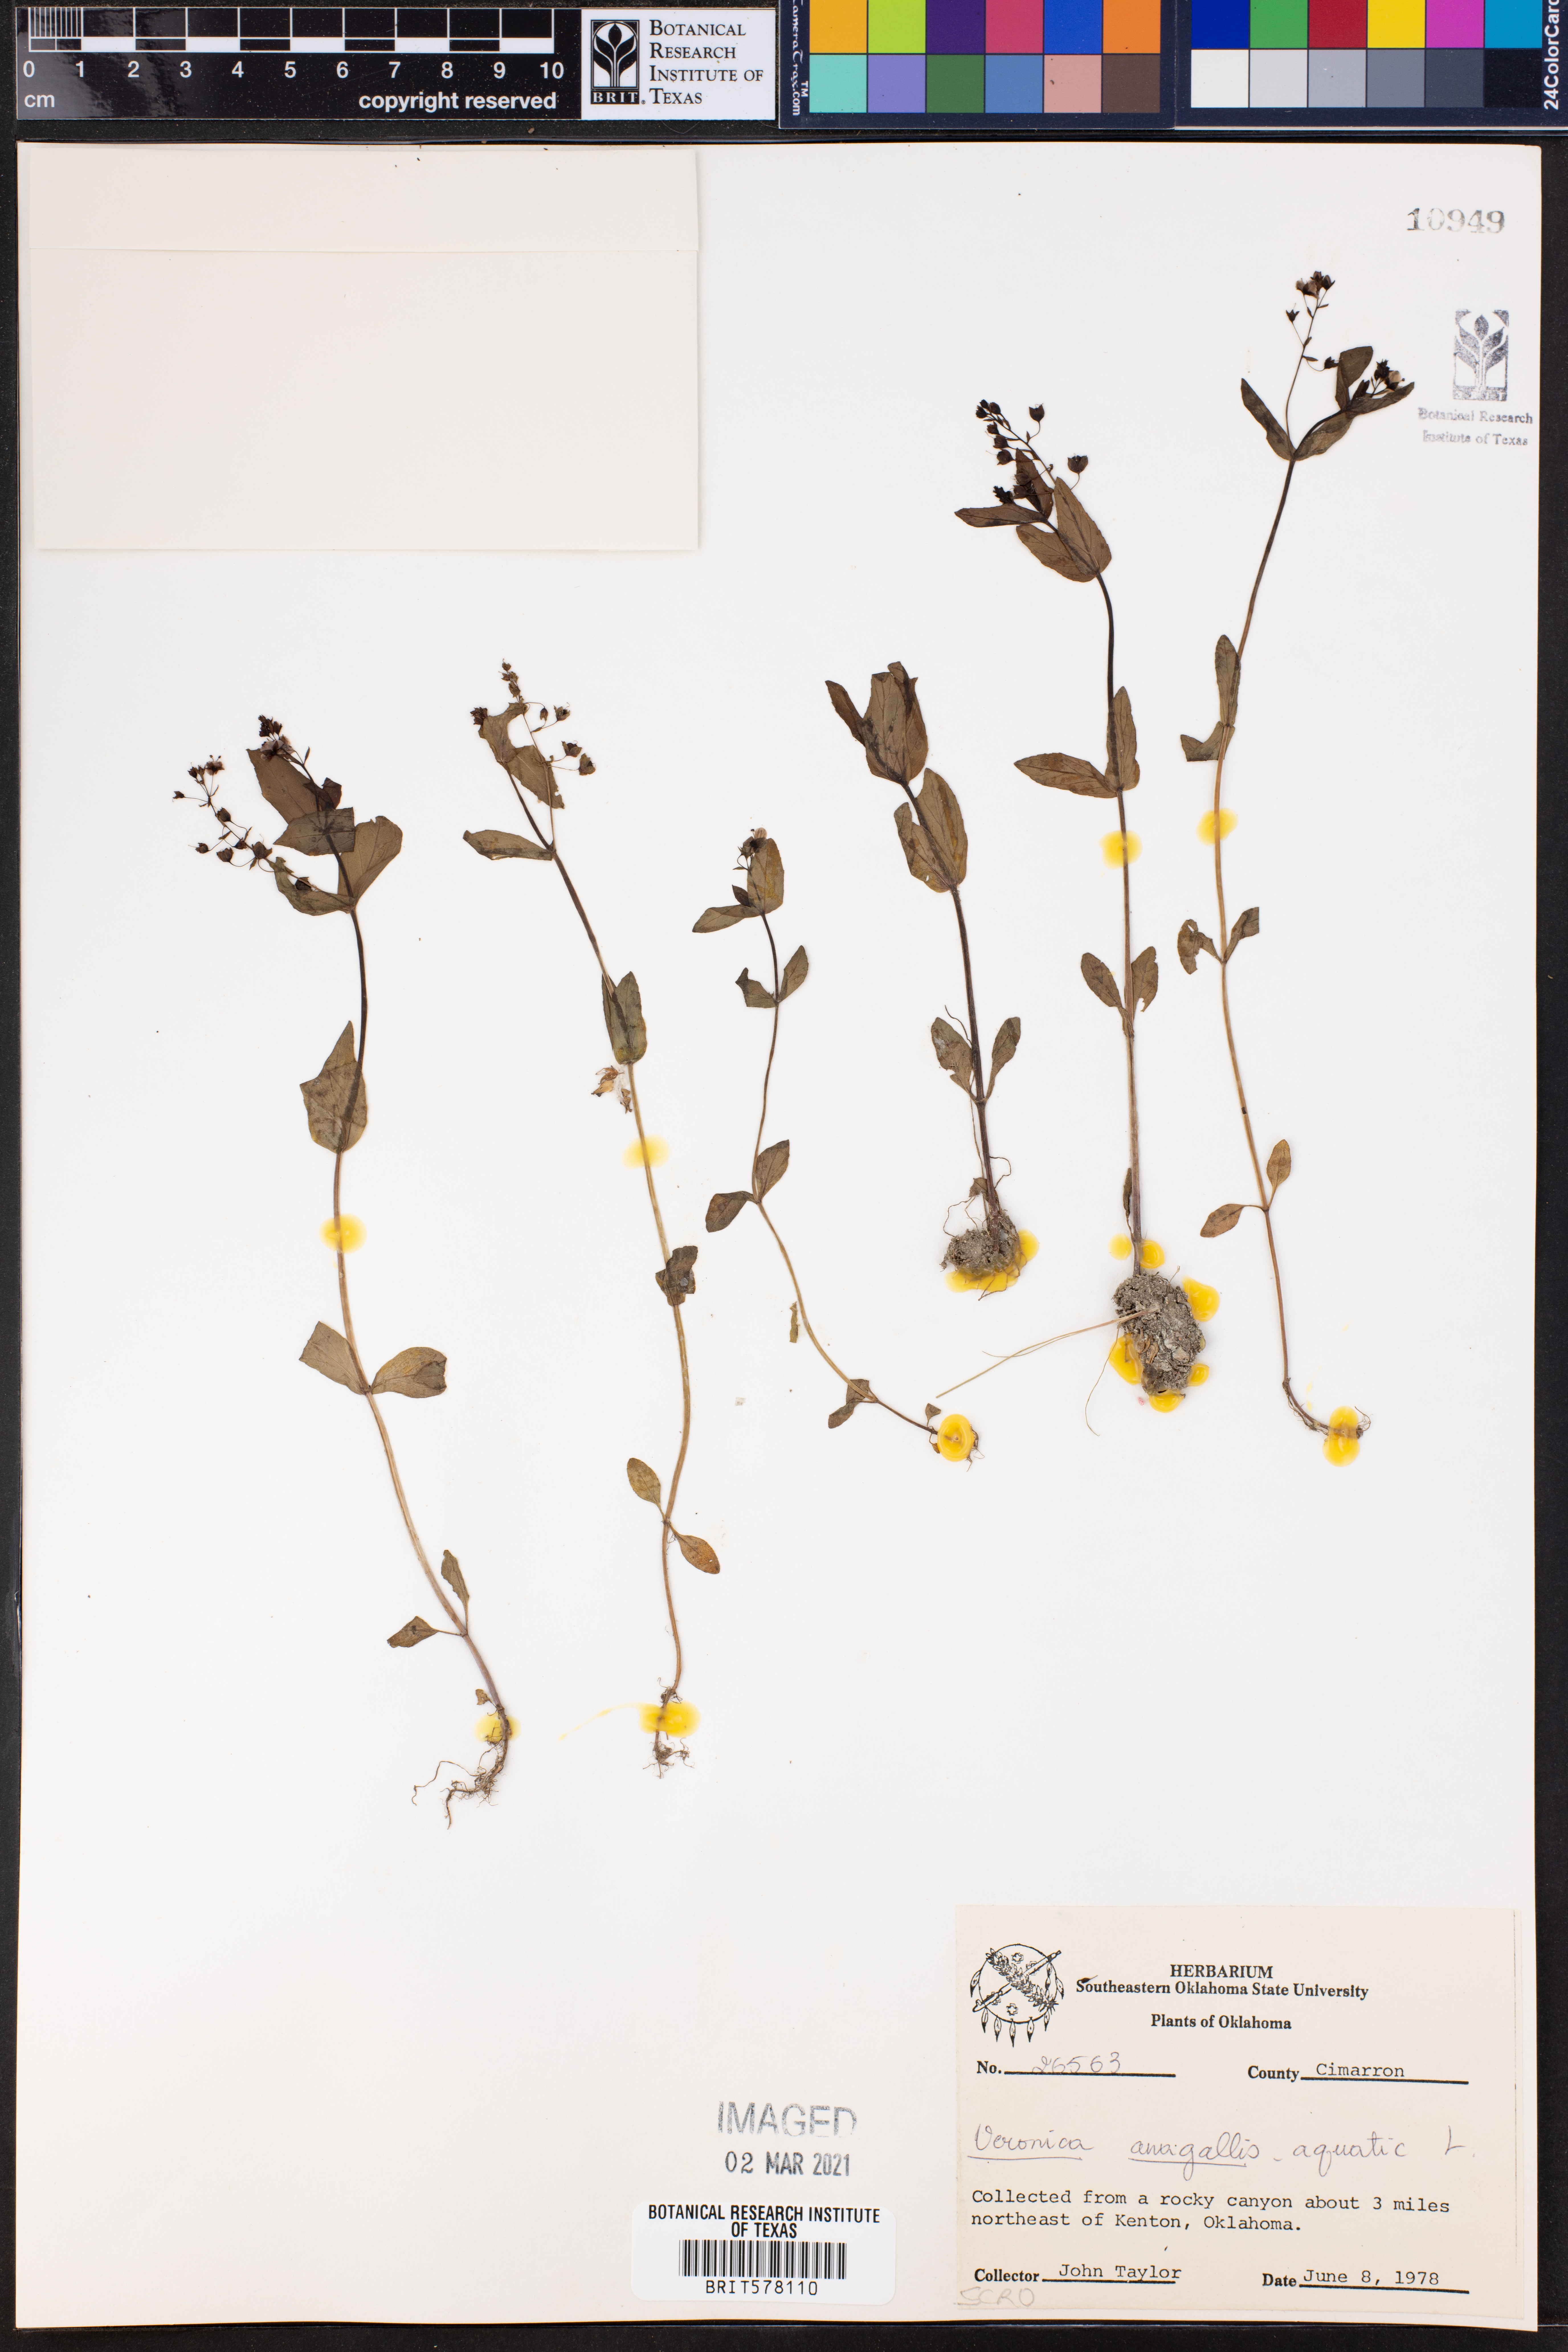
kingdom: Plantae
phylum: Tracheophyta
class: Magnoliopsida
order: Lamiales
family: Plantaginaceae
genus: Veronica
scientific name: Veronica anagallis-aquatica
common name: Water speedwell
